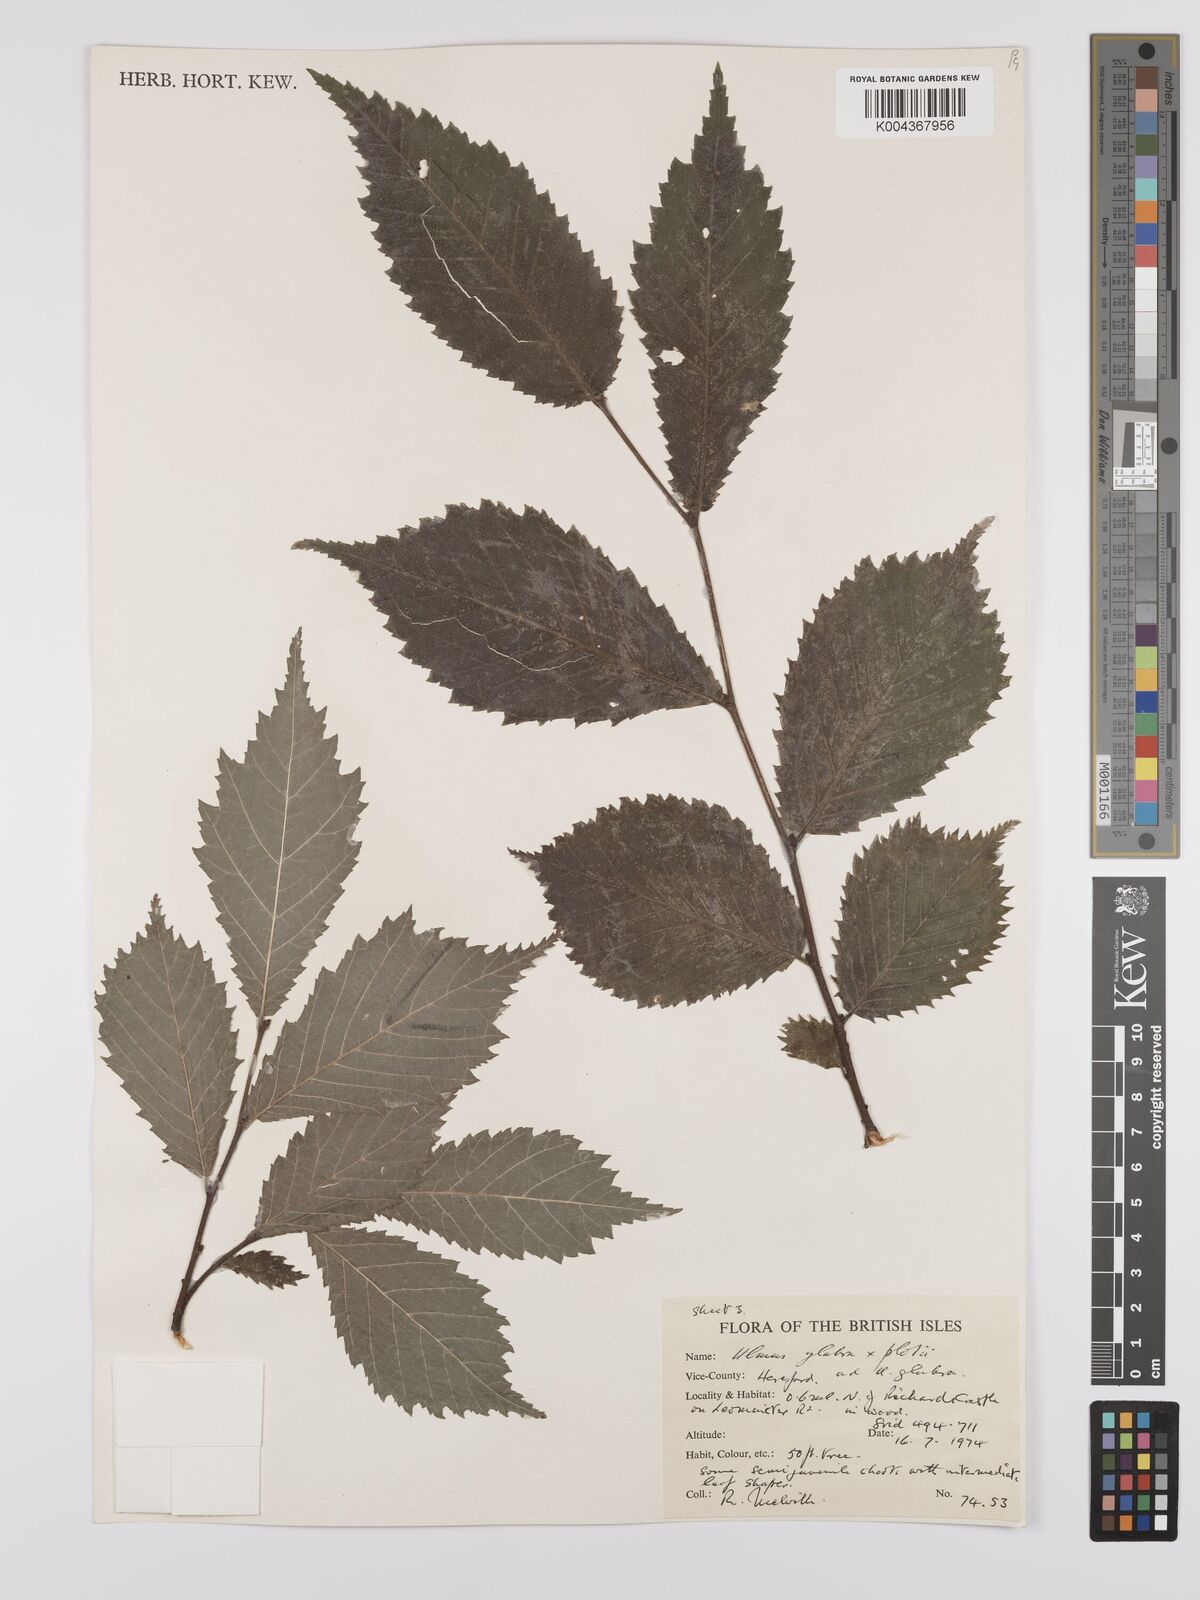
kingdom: Plantae
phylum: Tracheophyta
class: Magnoliopsida
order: Rosales
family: Ulmaceae
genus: Ulmus
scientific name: Ulmus glabra
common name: Wych elm
